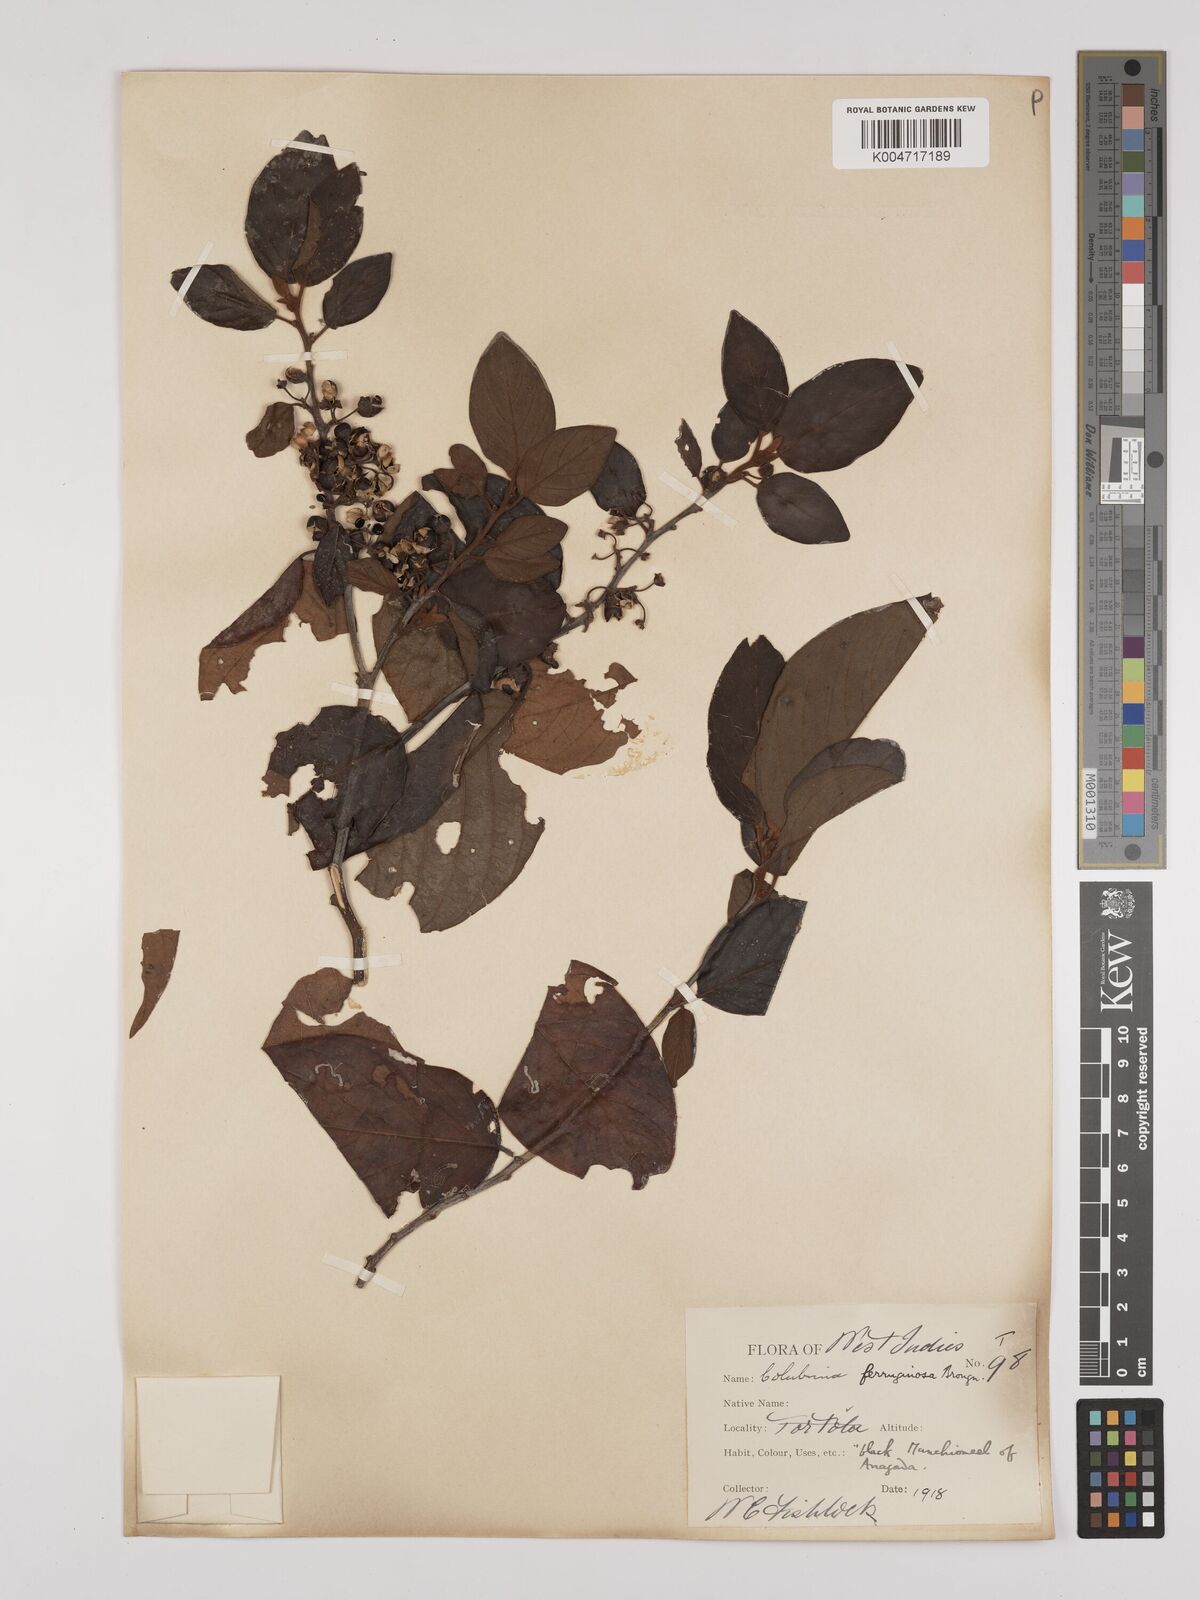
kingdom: Plantae
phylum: Tracheophyta
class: Magnoliopsida
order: Rosales
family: Rhamnaceae
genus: Colubrina
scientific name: Colubrina arborescens
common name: Wild coffee
